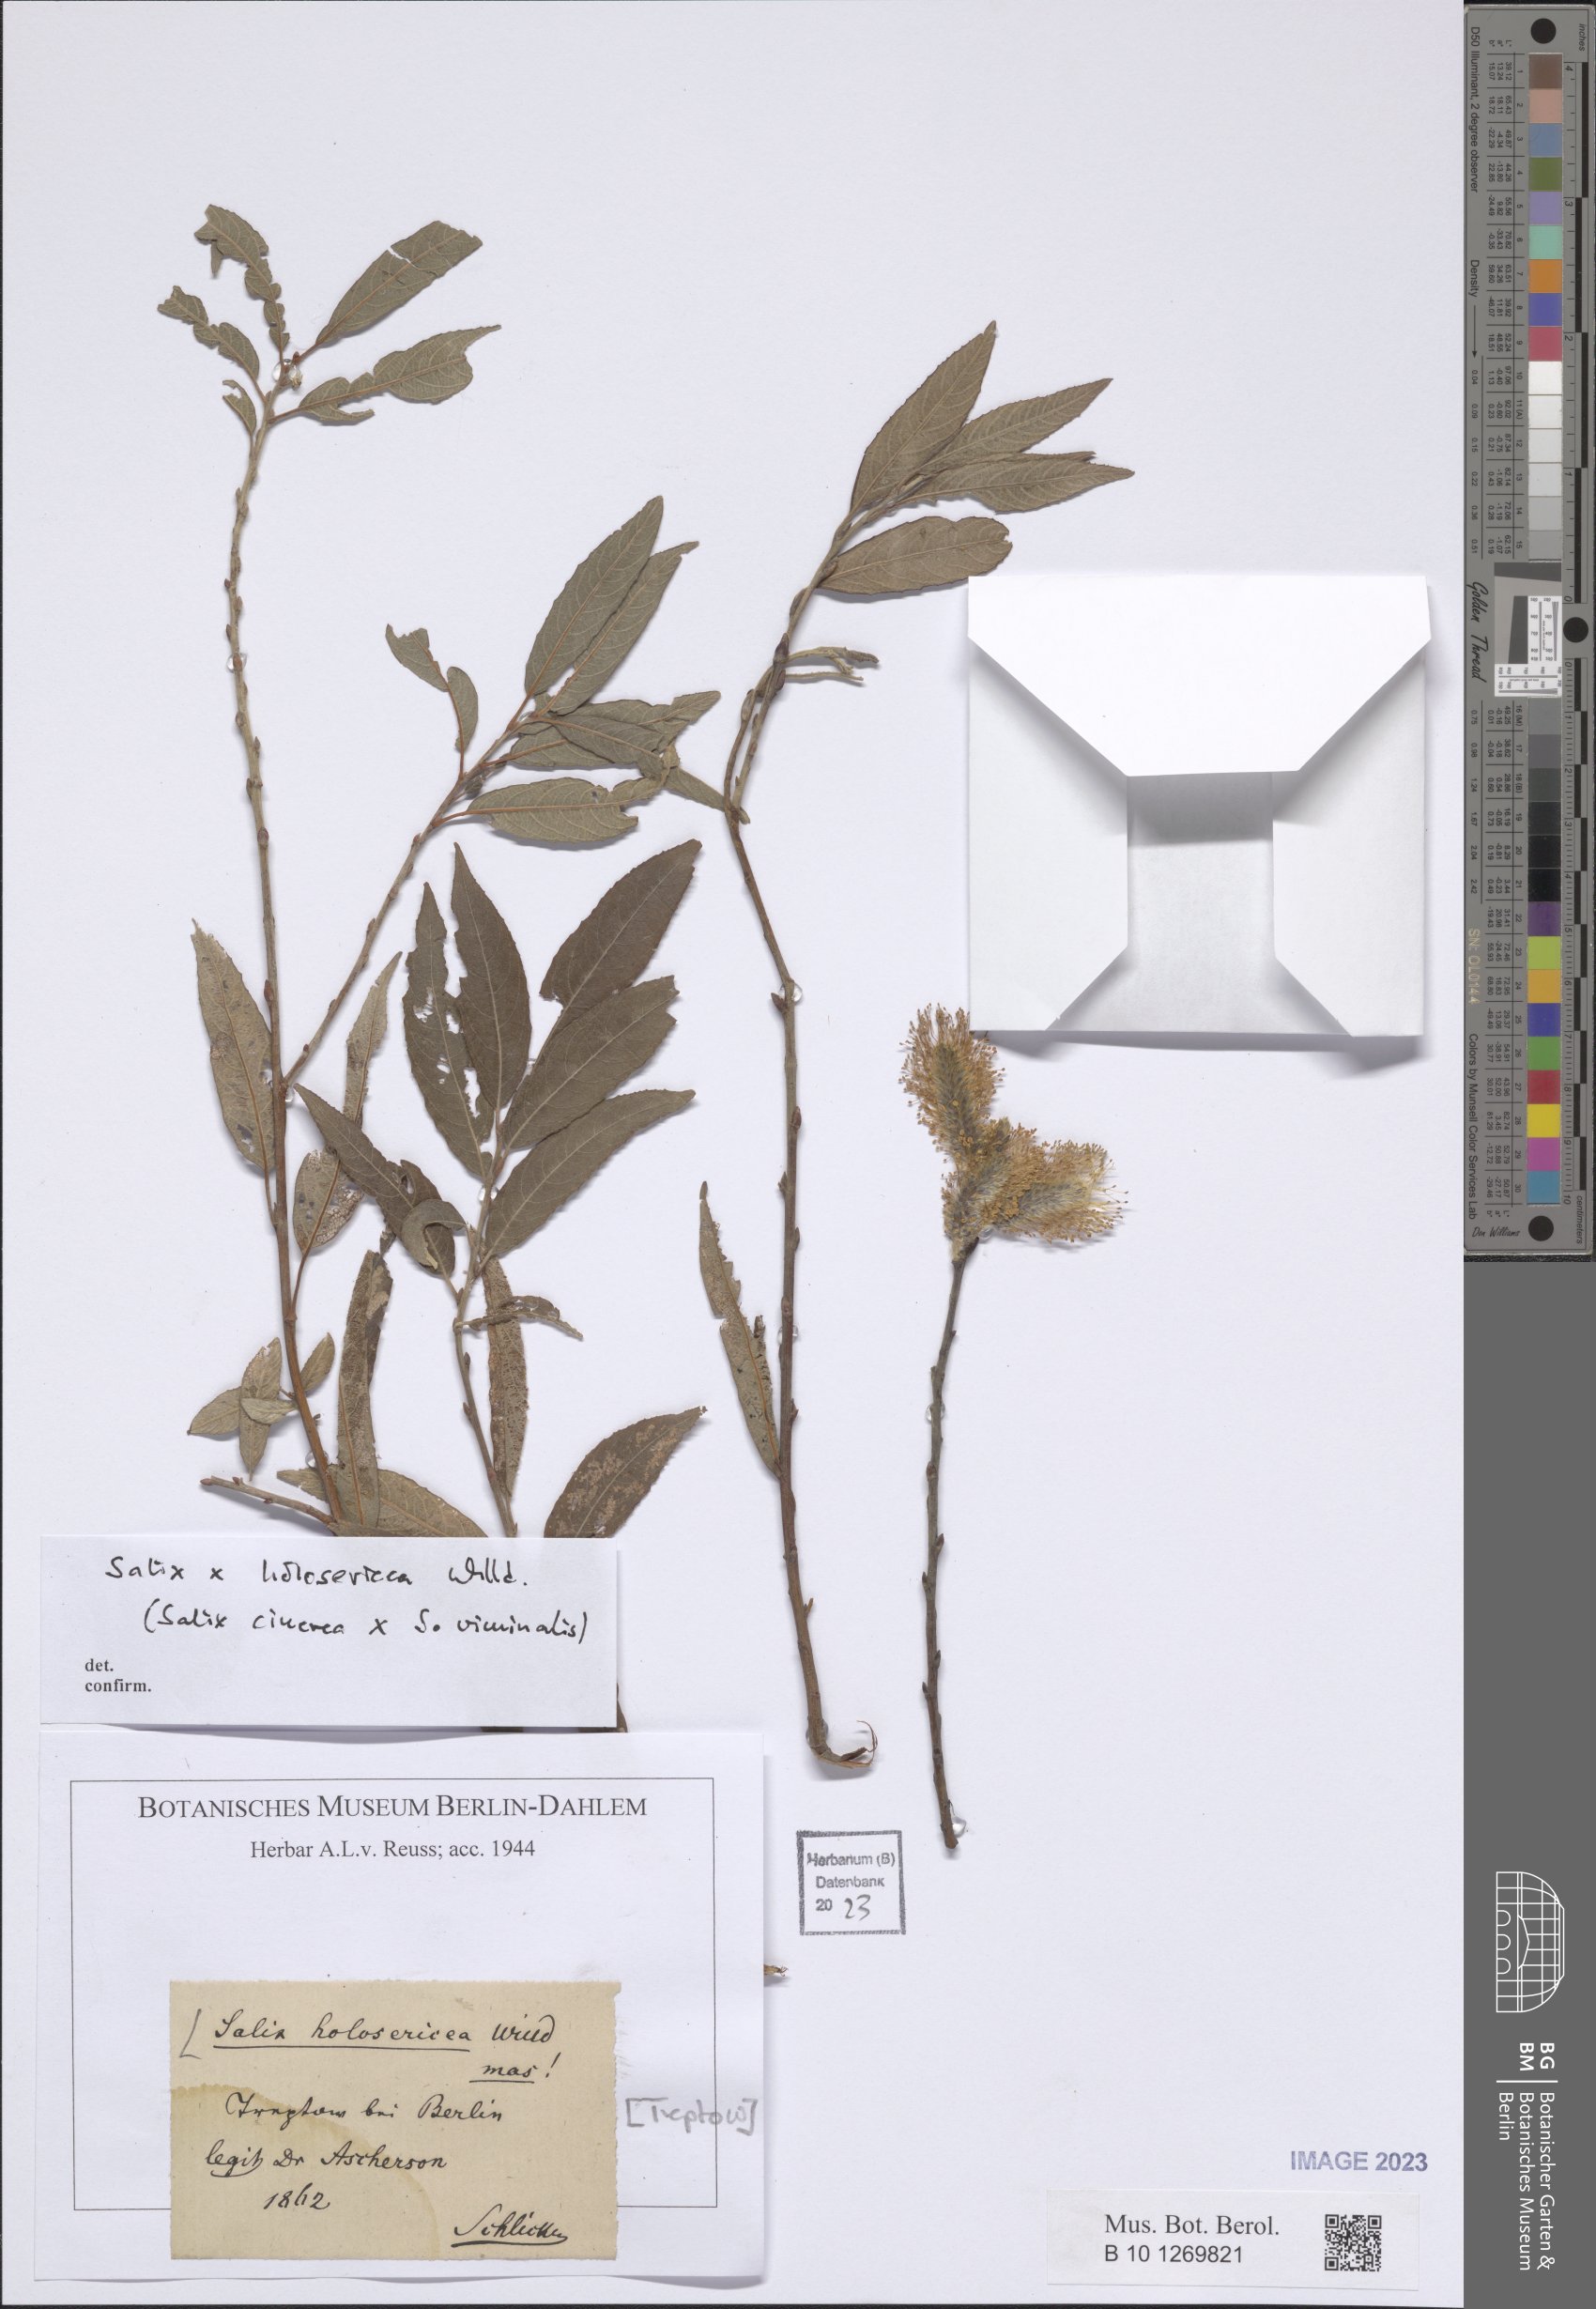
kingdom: Plantae
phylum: Tracheophyta
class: Magnoliopsida
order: Malpighiales
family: Salicaceae
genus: Salix
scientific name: Salix holosericea
